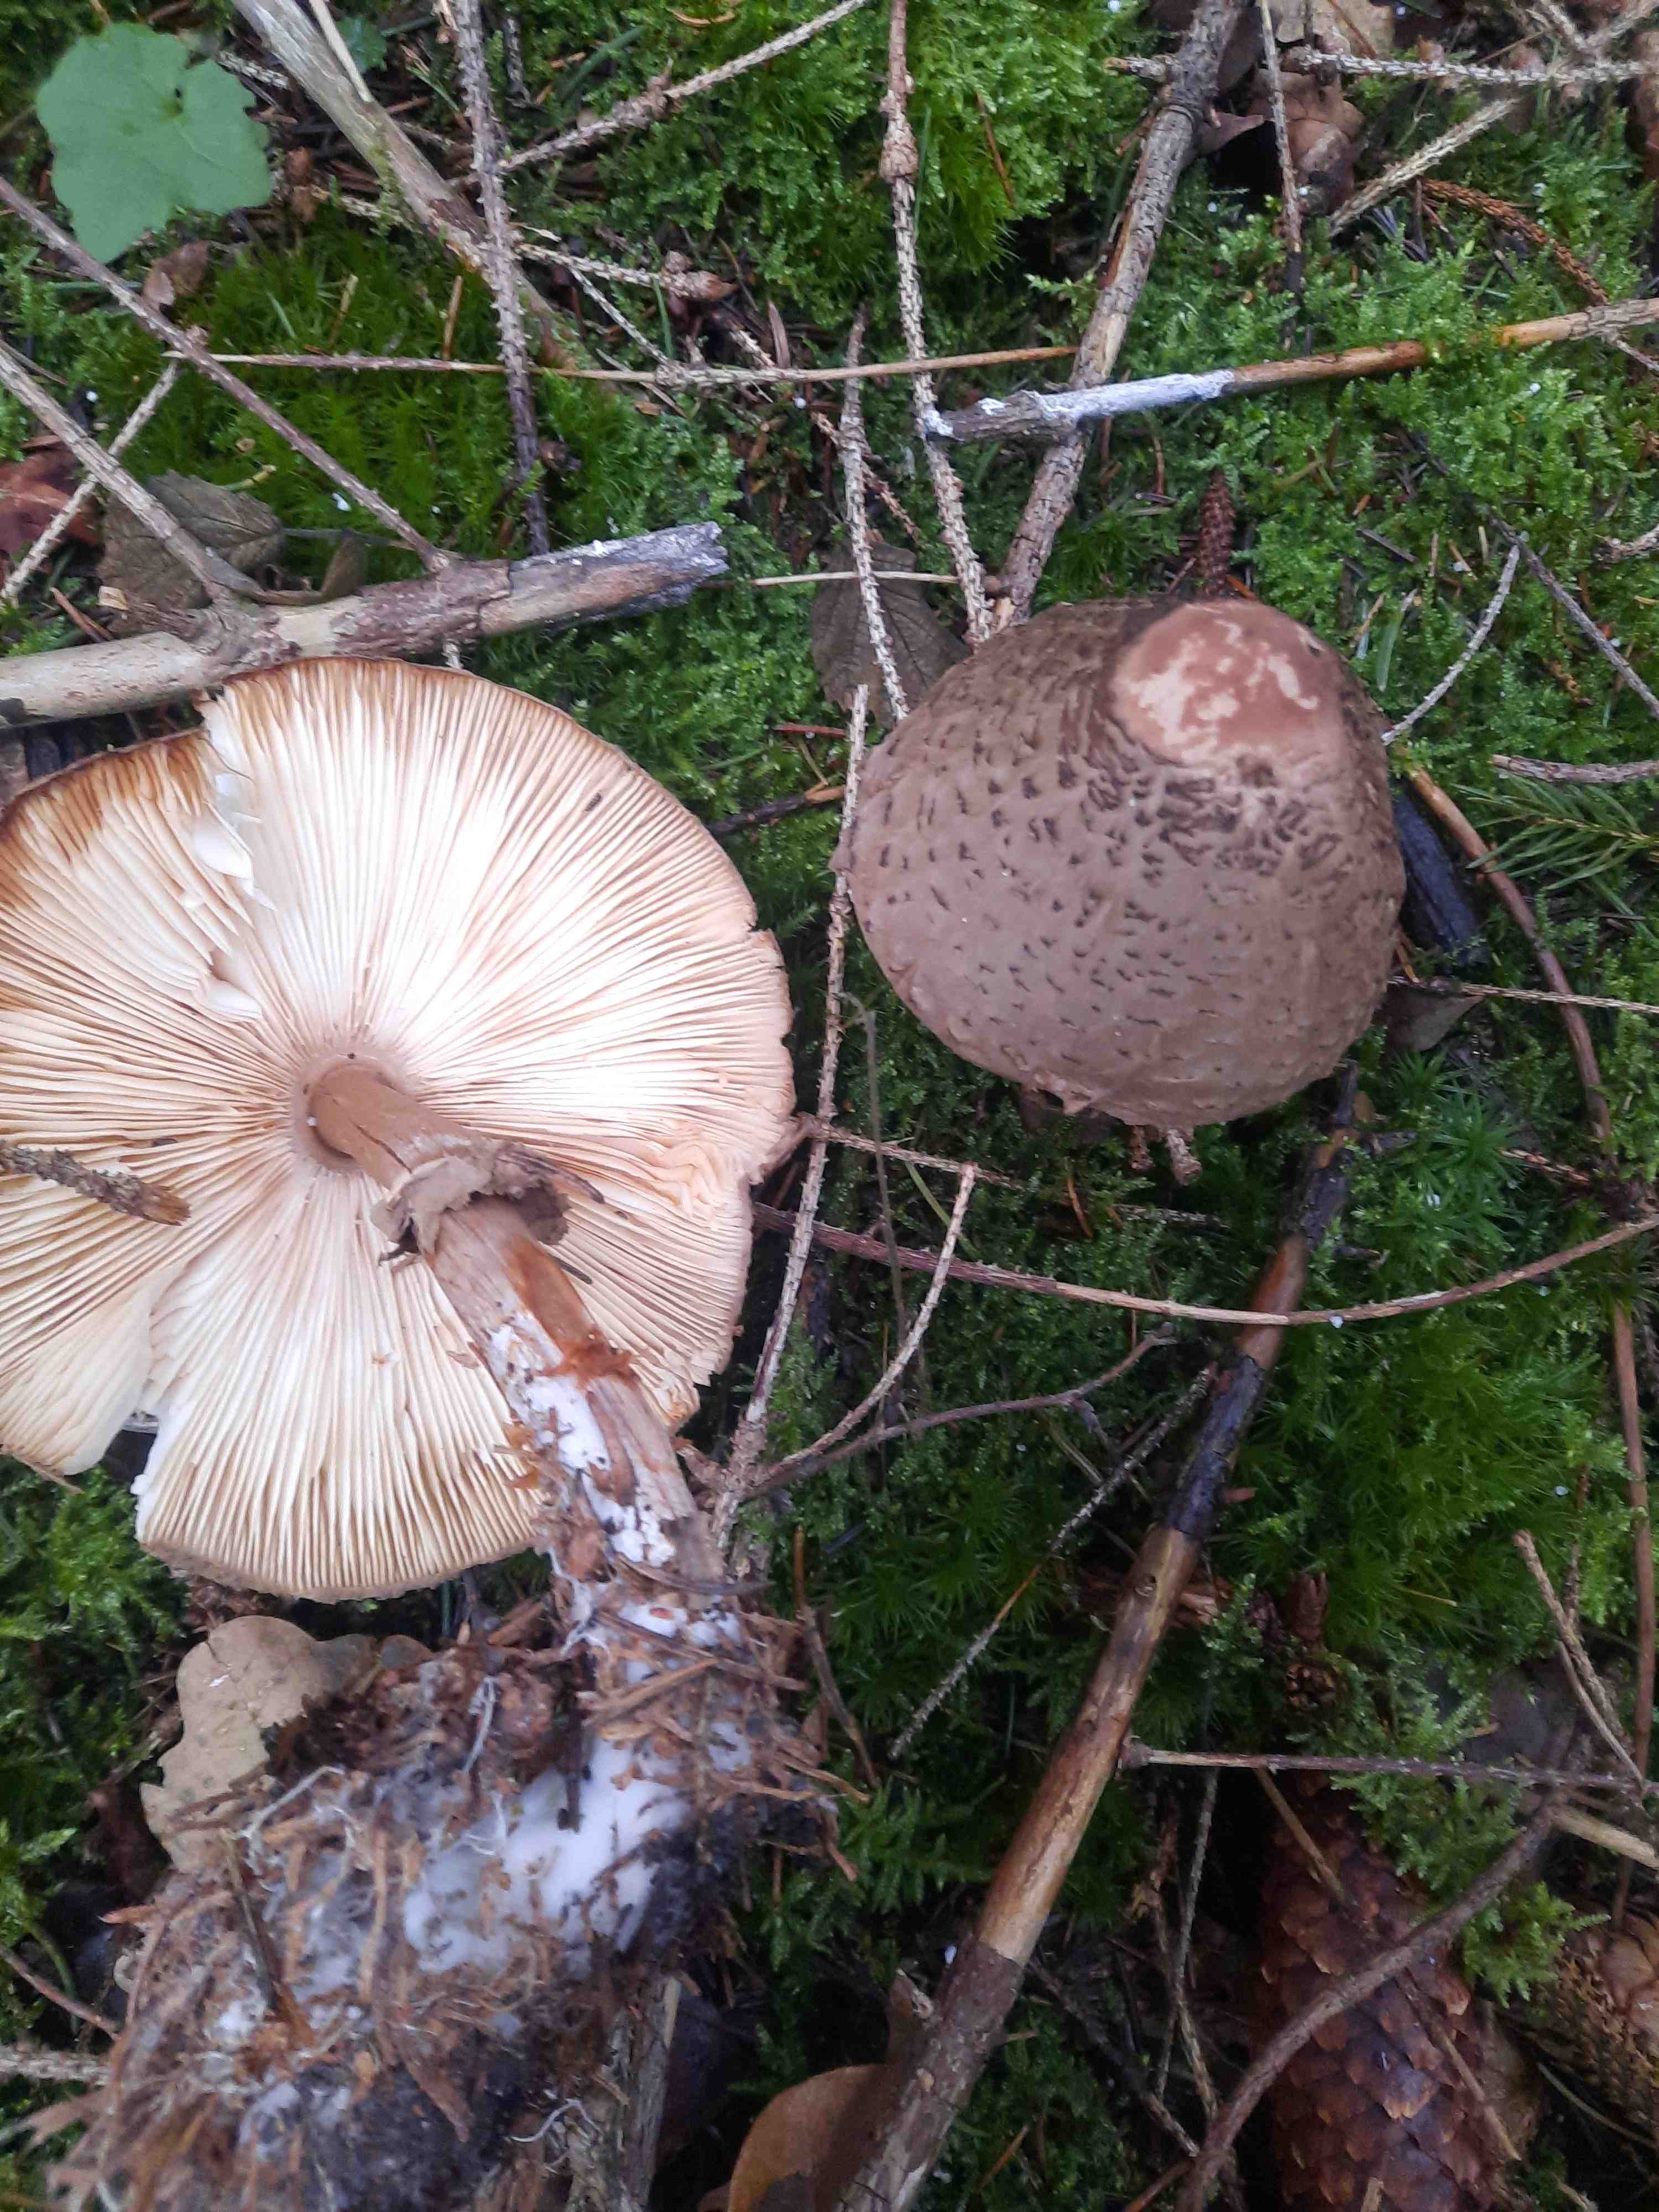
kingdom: Fungi
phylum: Basidiomycota
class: Agaricomycetes
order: Agaricales
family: Agaricaceae
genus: Chlorophyllum
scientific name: Chlorophyllum olivieri
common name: almindelig rabarberhat
